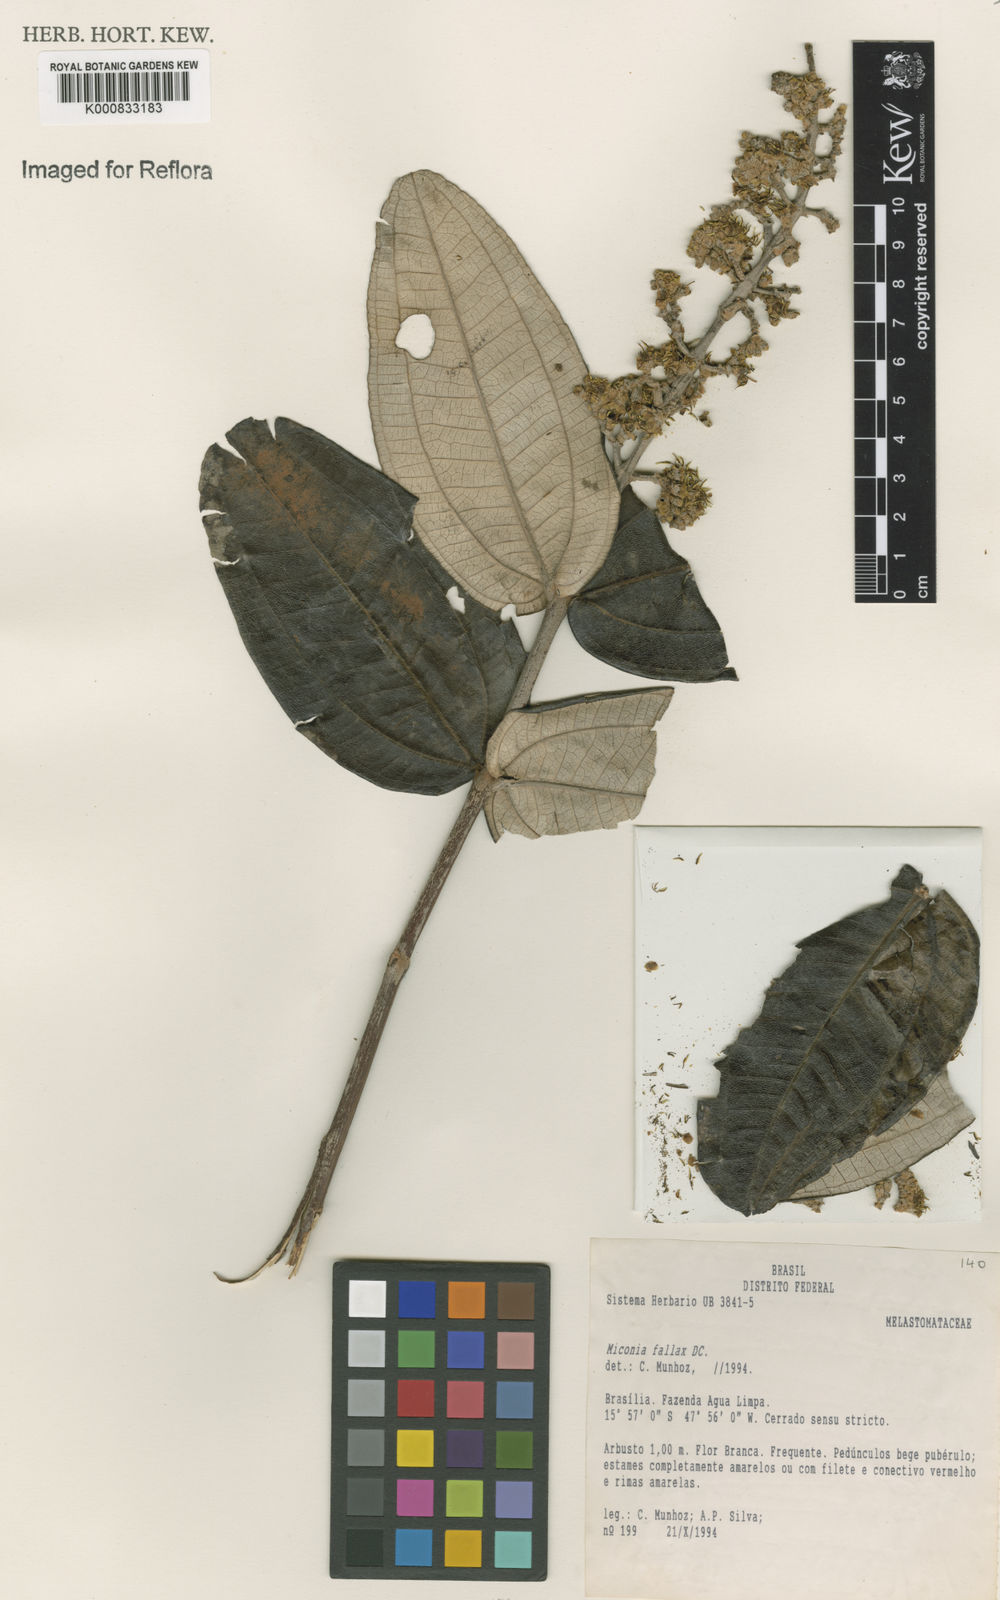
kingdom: Plantae
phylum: Tracheophyta
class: Magnoliopsida
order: Myrtales
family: Melastomataceae
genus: Miconia
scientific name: Miconia fallax
